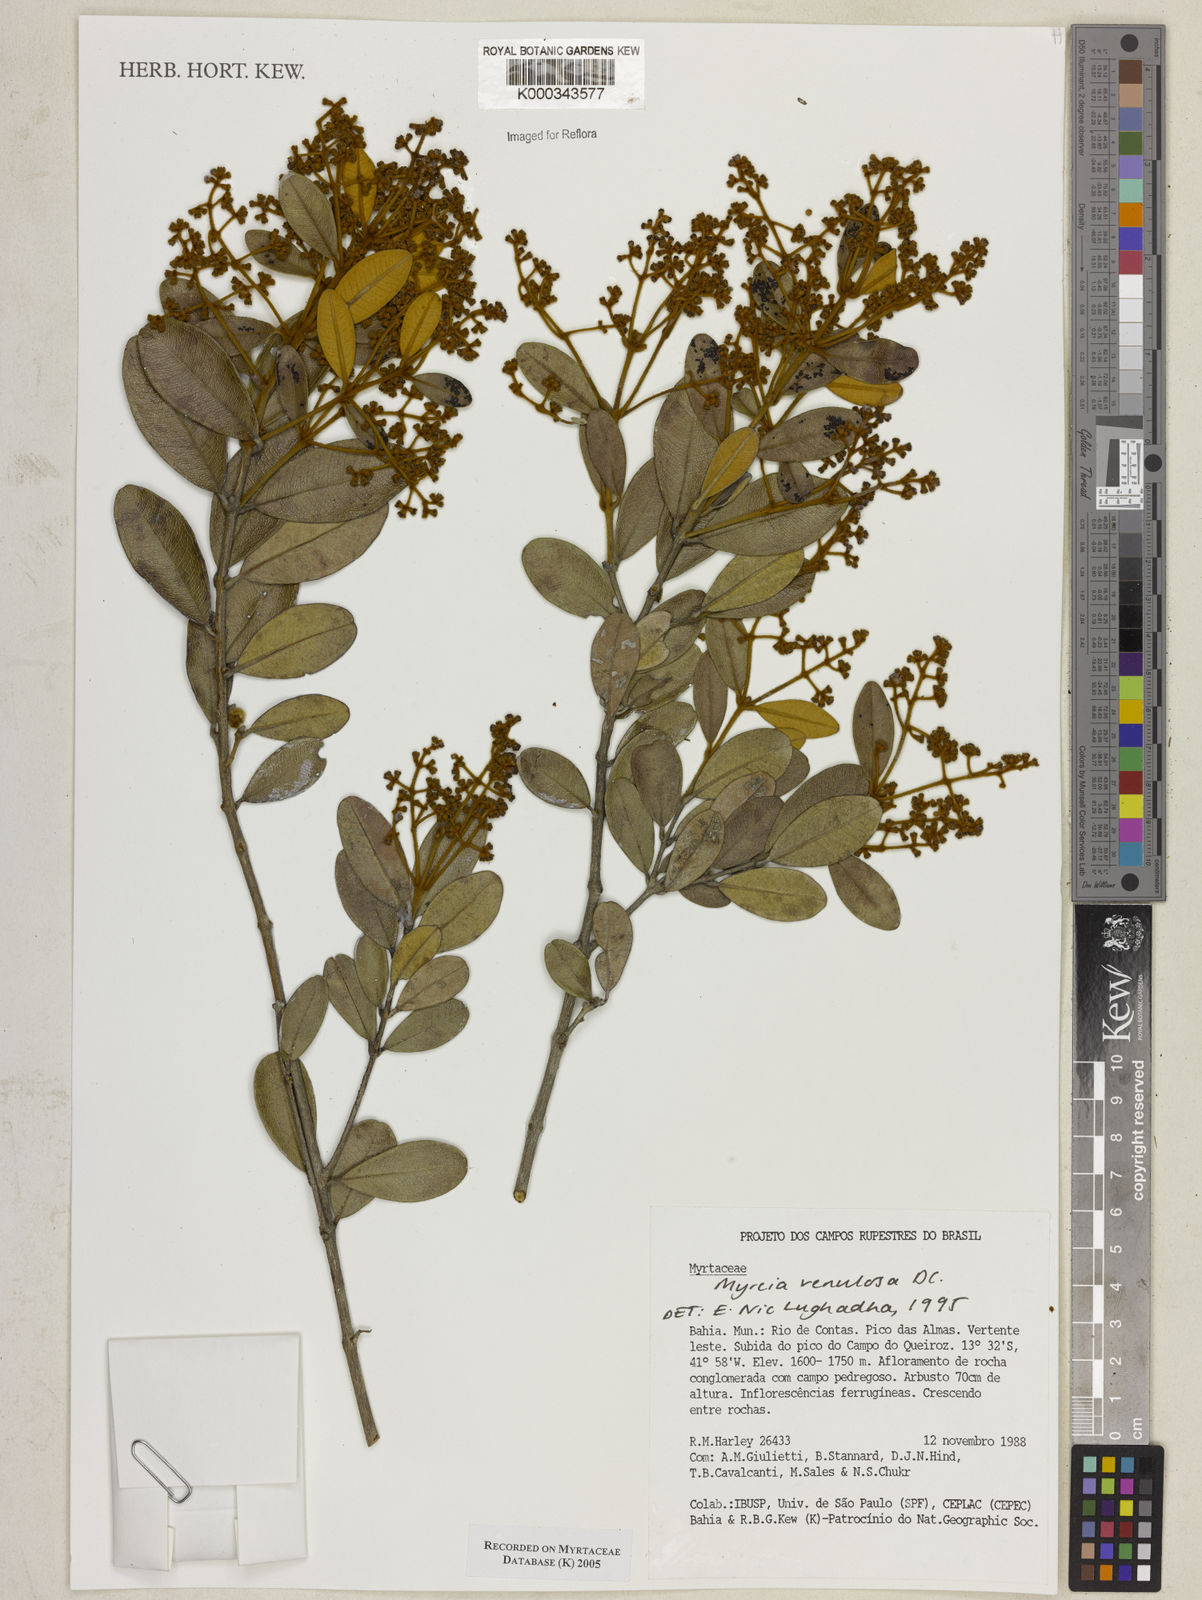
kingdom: Plantae
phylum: Tracheophyta
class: Magnoliopsida
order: Myrtales
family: Myrtaceae
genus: Myrcia
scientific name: Myrcia venulosa
